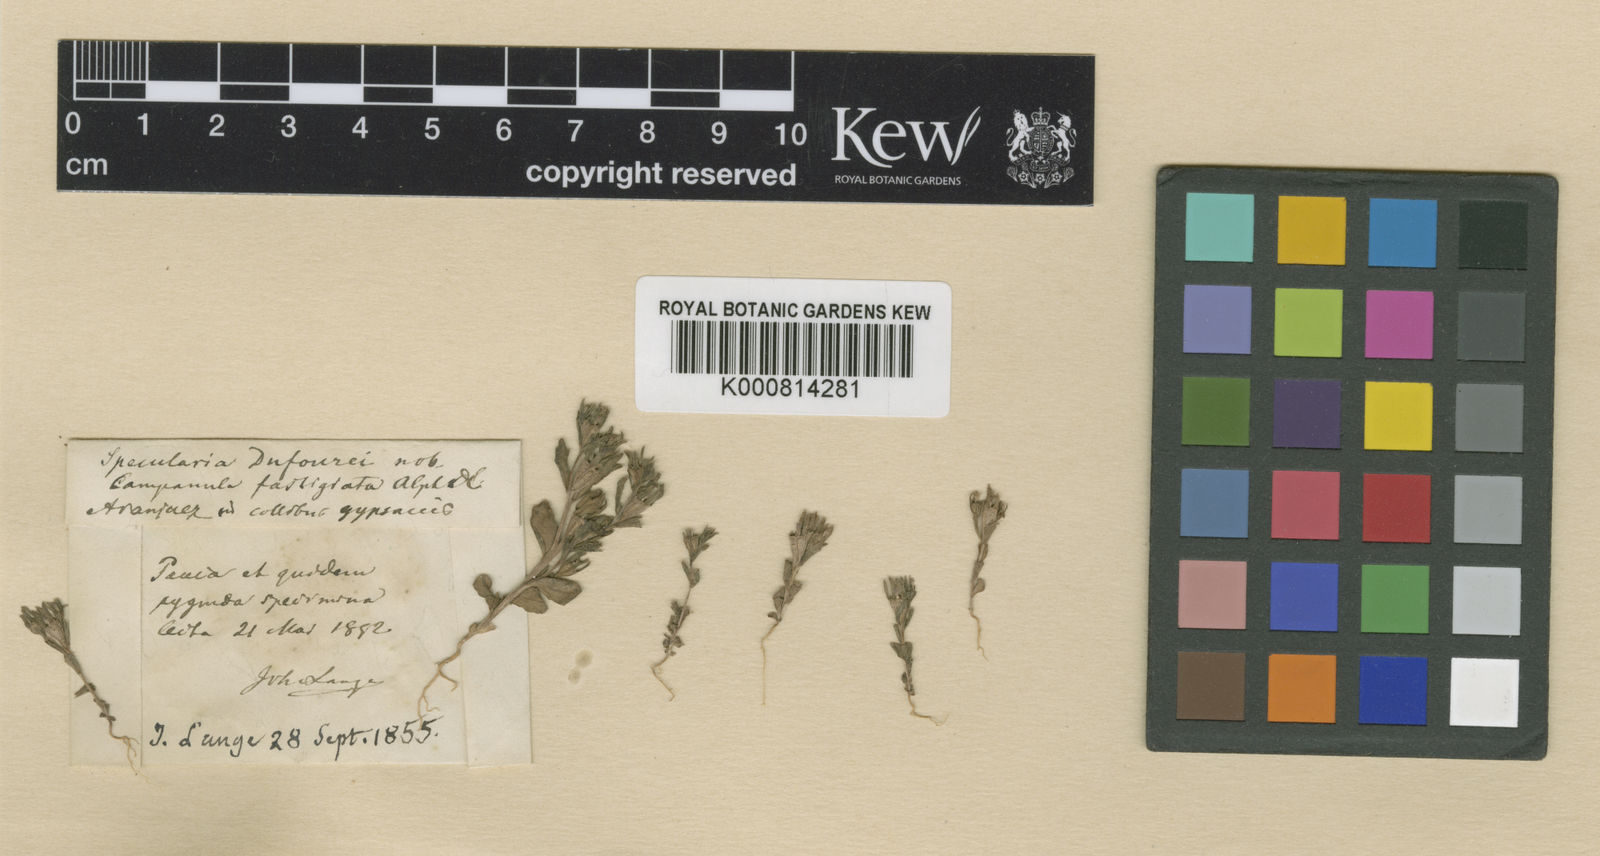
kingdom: Plantae
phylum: Tracheophyta
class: Magnoliopsida
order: Asterales
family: Campanulaceae
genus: Campanula
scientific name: Campanula
